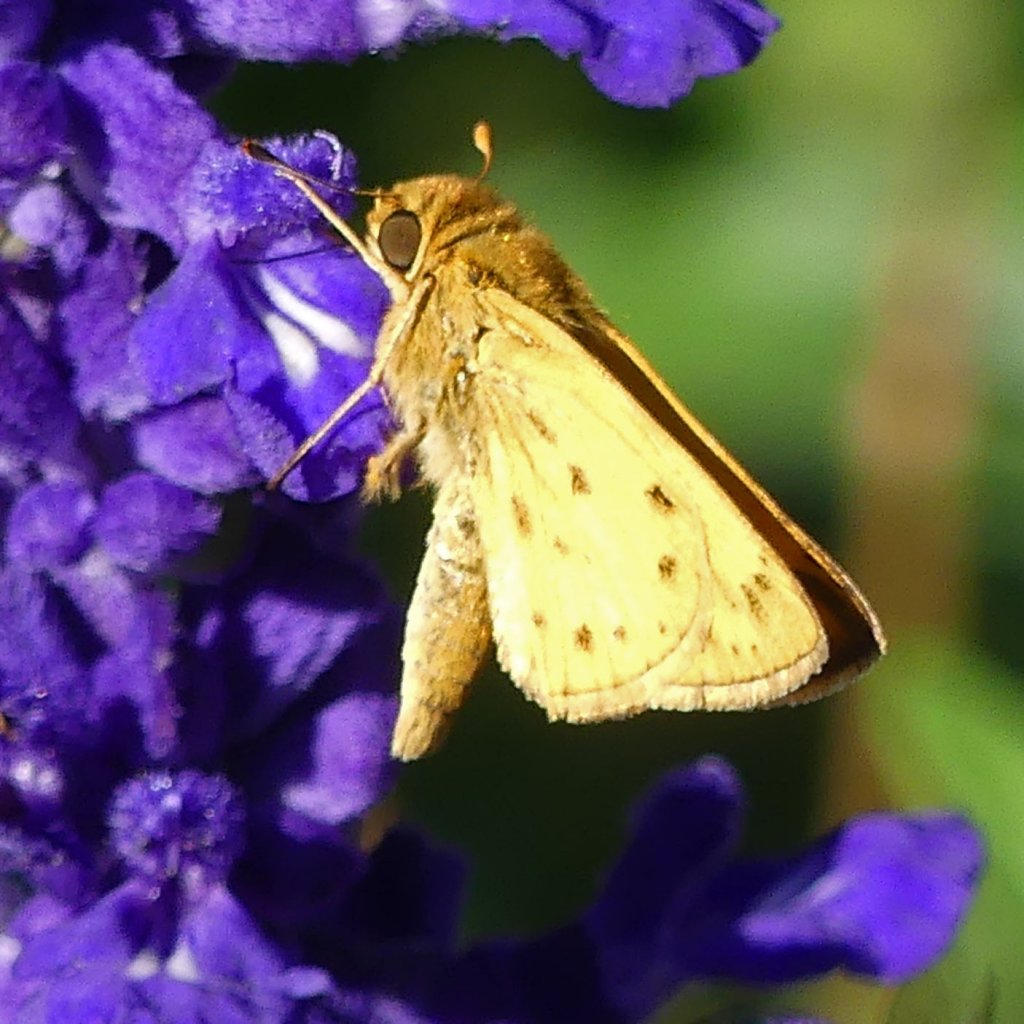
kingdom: Animalia
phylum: Arthropoda
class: Insecta
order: Lepidoptera
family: Hesperiidae
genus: Hylephila
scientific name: Hylephila phyleus
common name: Fiery Skipper
